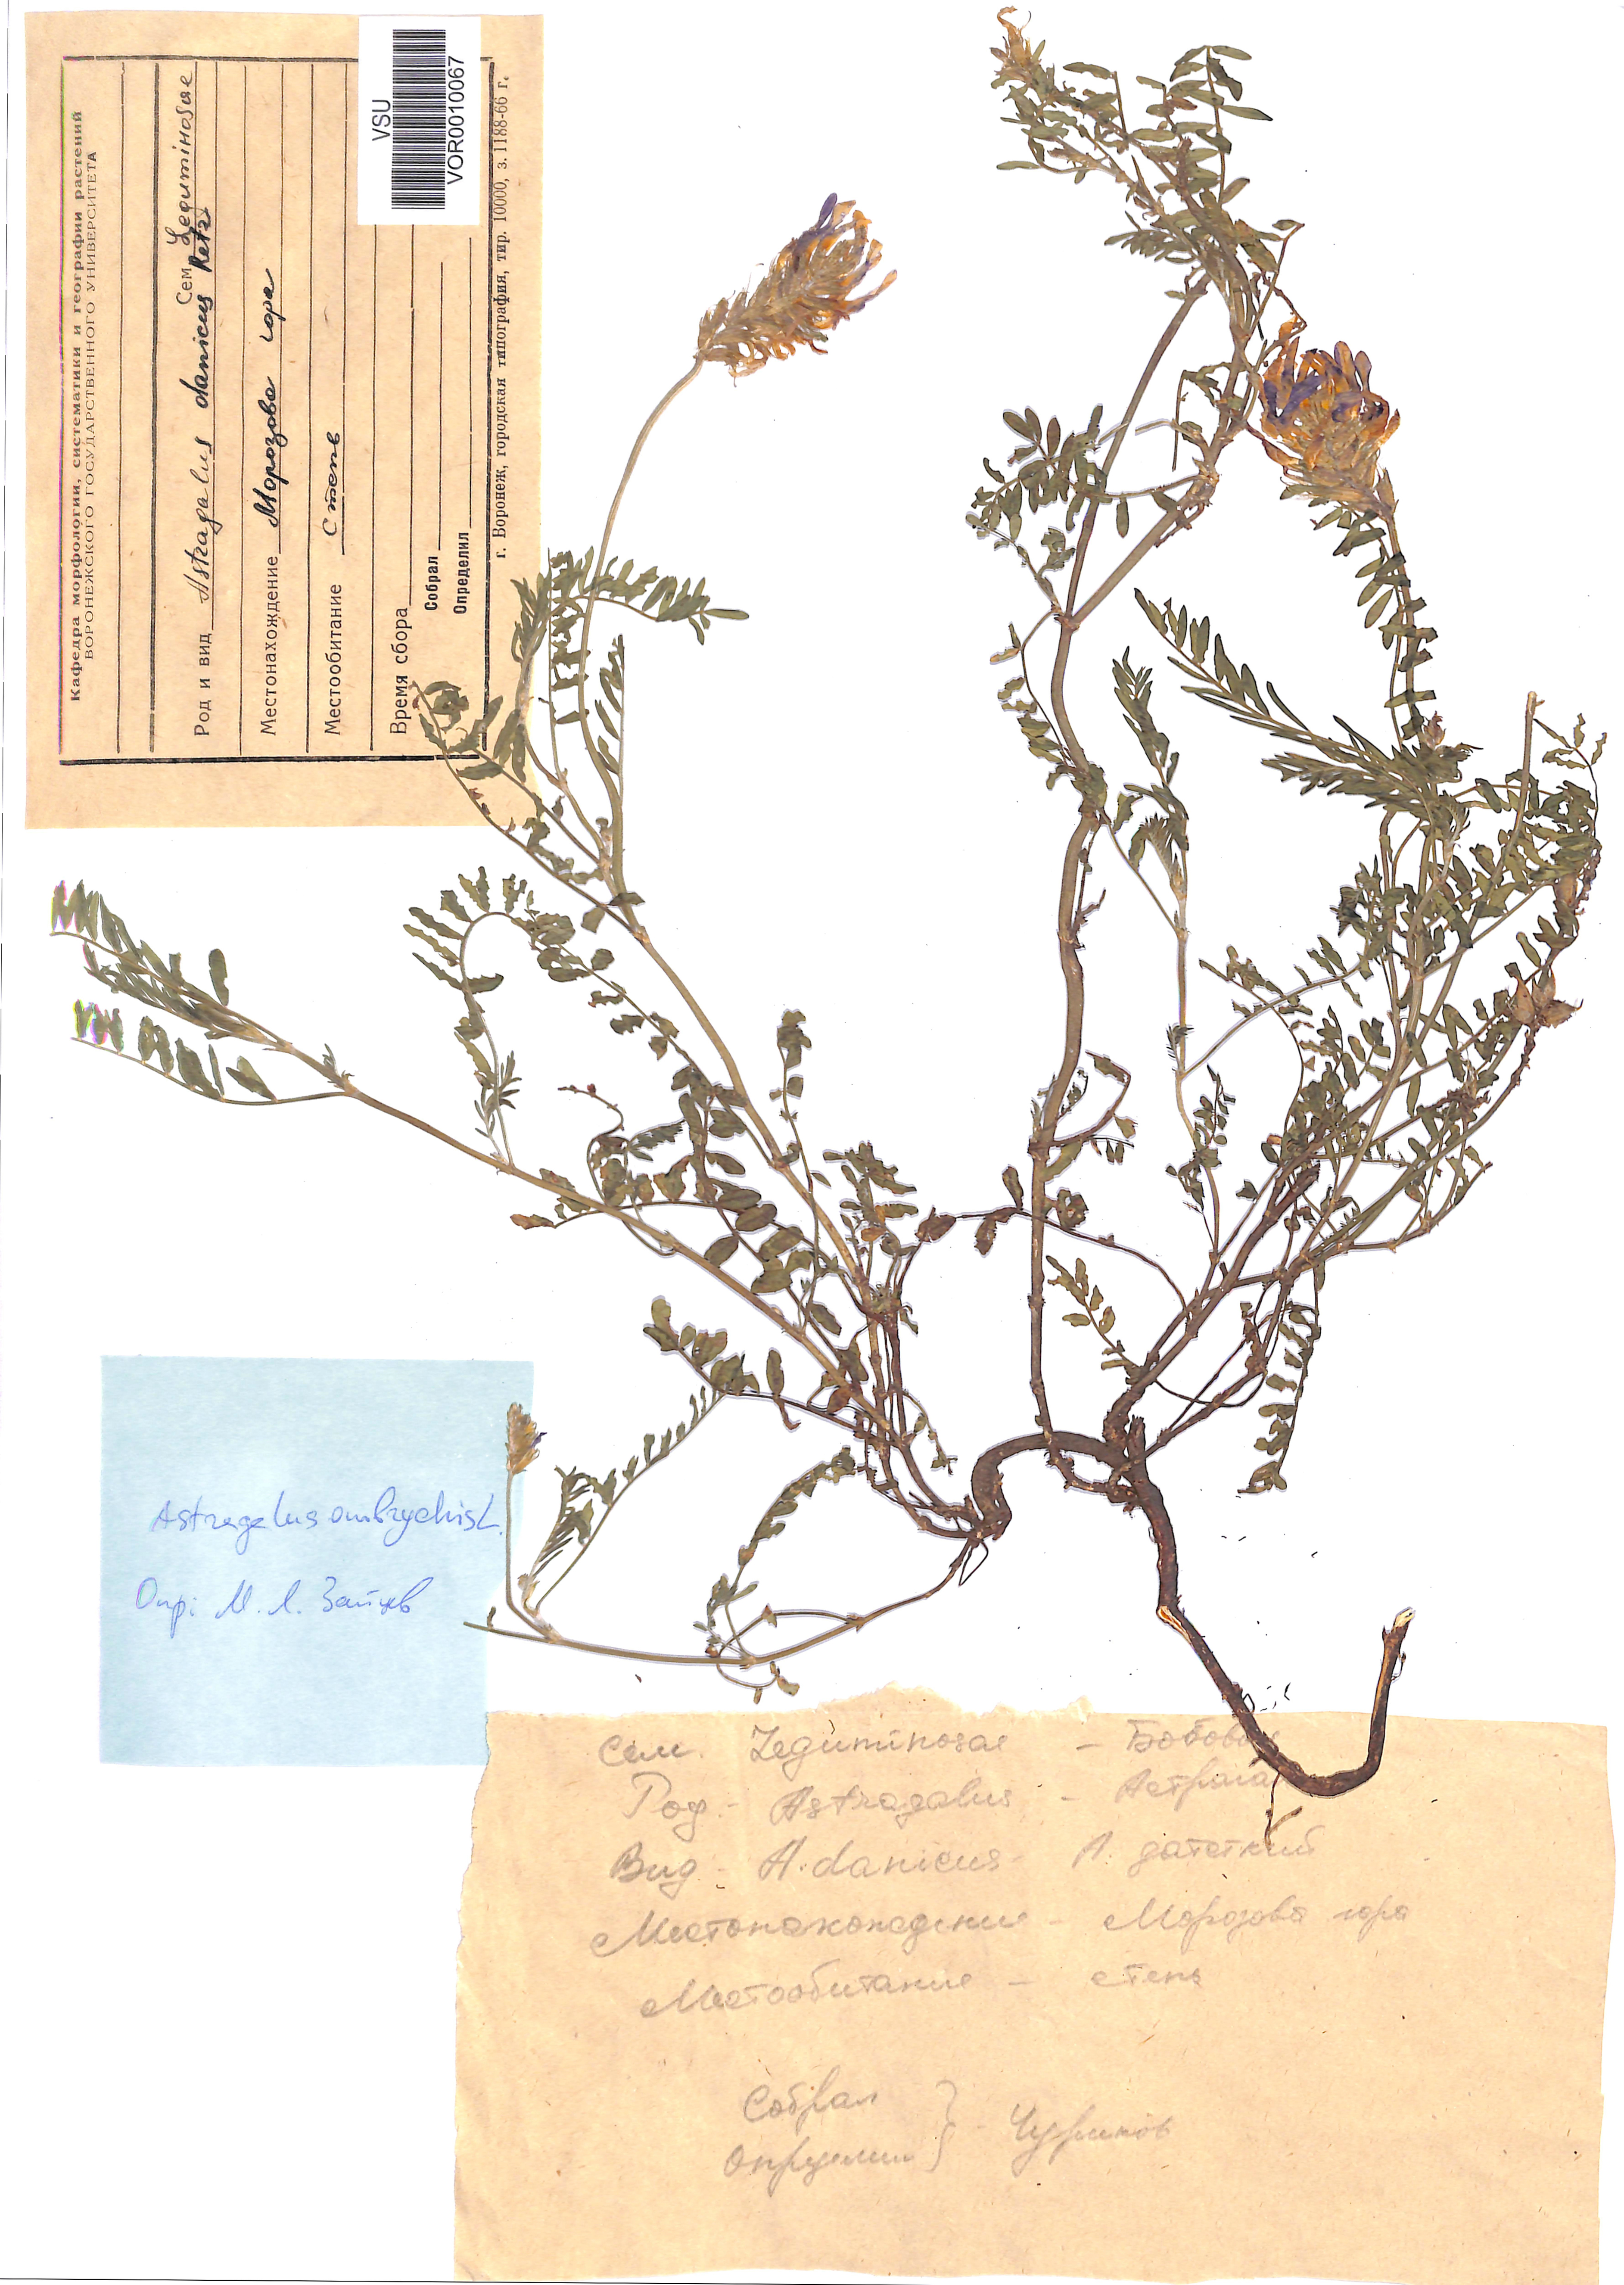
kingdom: Plantae
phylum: Tracheophyta
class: Magnoliopsida
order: Fabales
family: Fabaceae
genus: Astragalus
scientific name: Astragalus onobrychis
